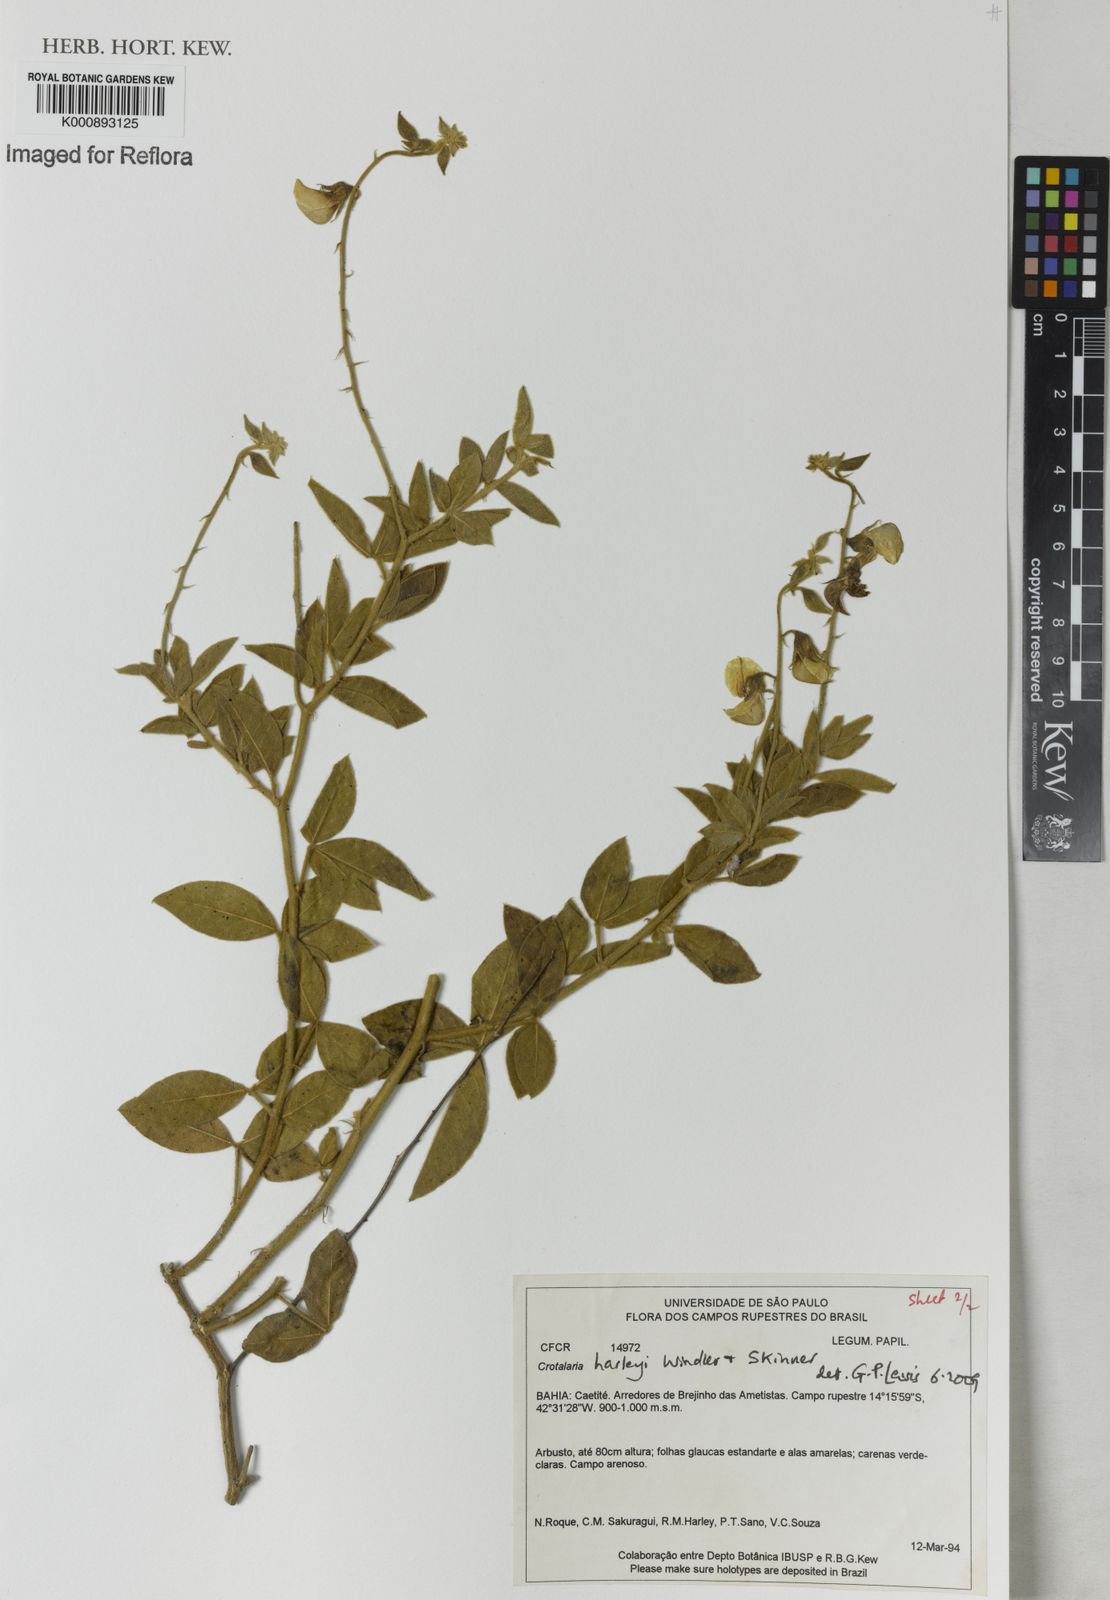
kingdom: Plantae
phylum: Tracheophyta
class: Magnoliopsida
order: Fabales
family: Fabaceae
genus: Crotalaria
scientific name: Crotalaria harleyi
